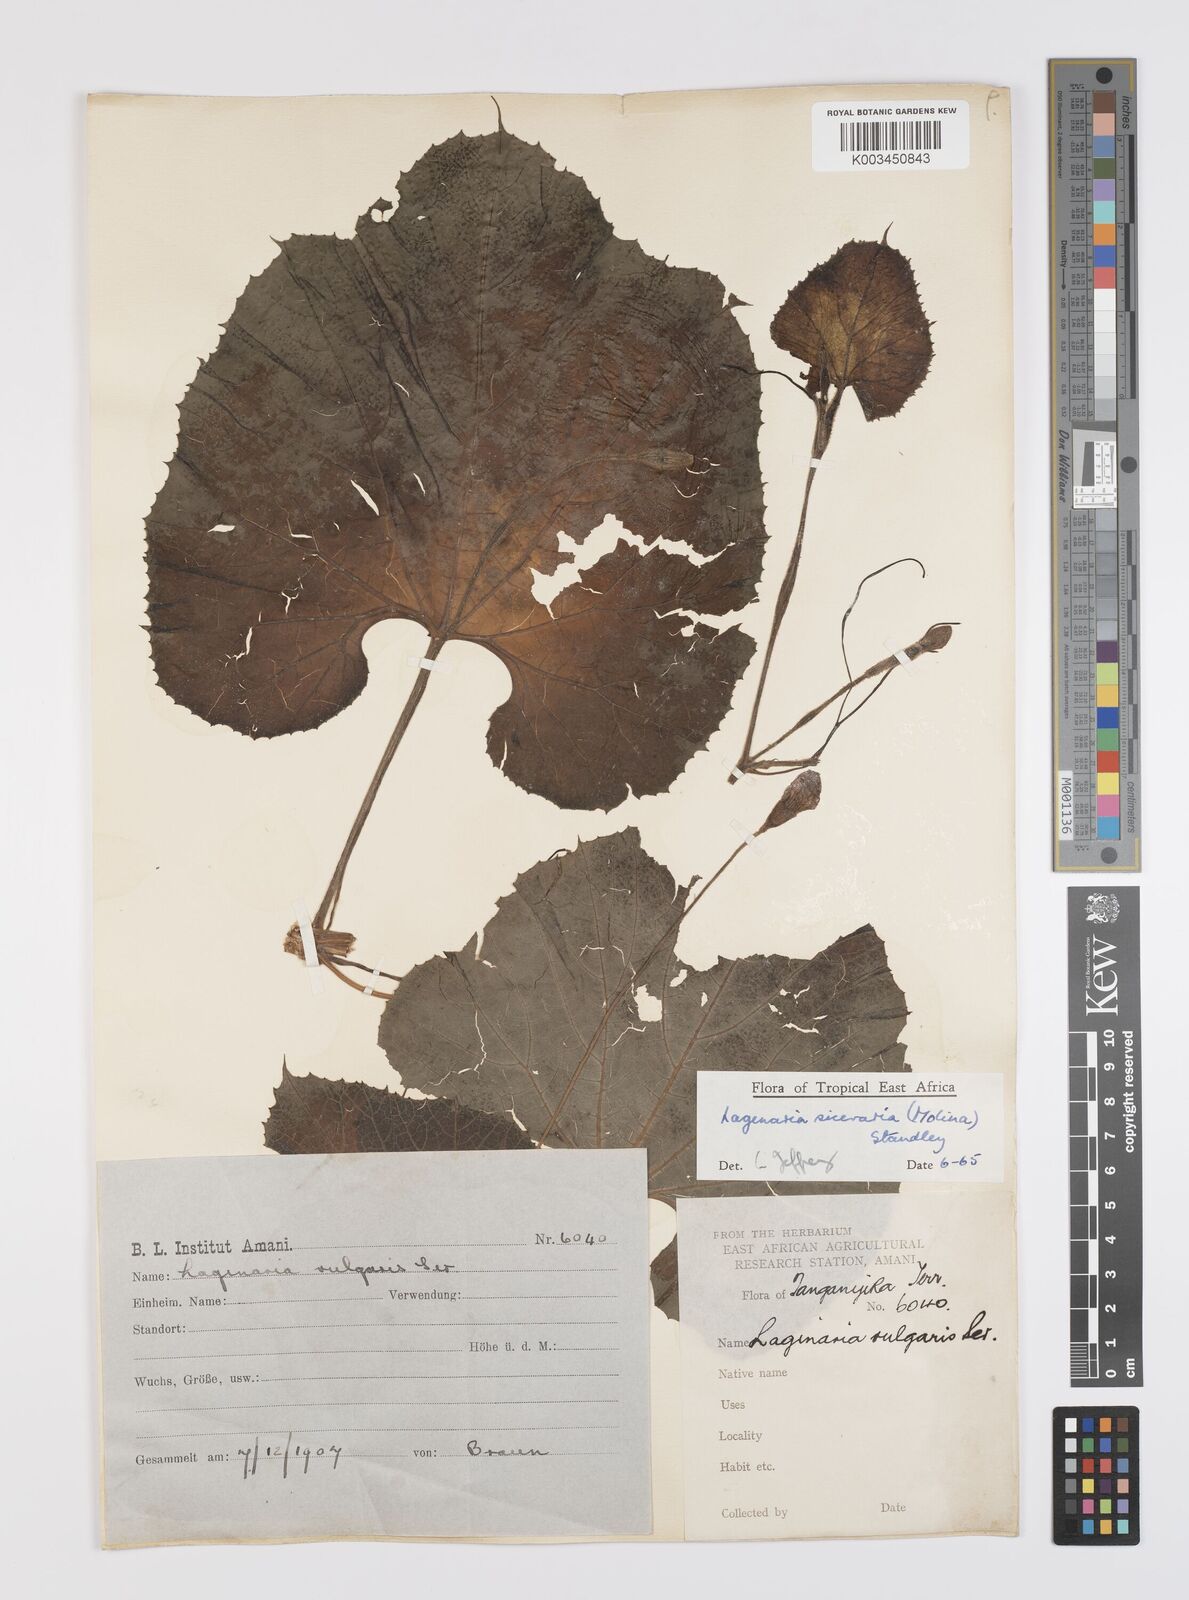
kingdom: Plantae
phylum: Tracheophyta
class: Magnoliopsida
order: Cucurbitales
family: Cucurbitaceae
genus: Lagenaria
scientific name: Lagenaria siceraria
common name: Bottle gourd
